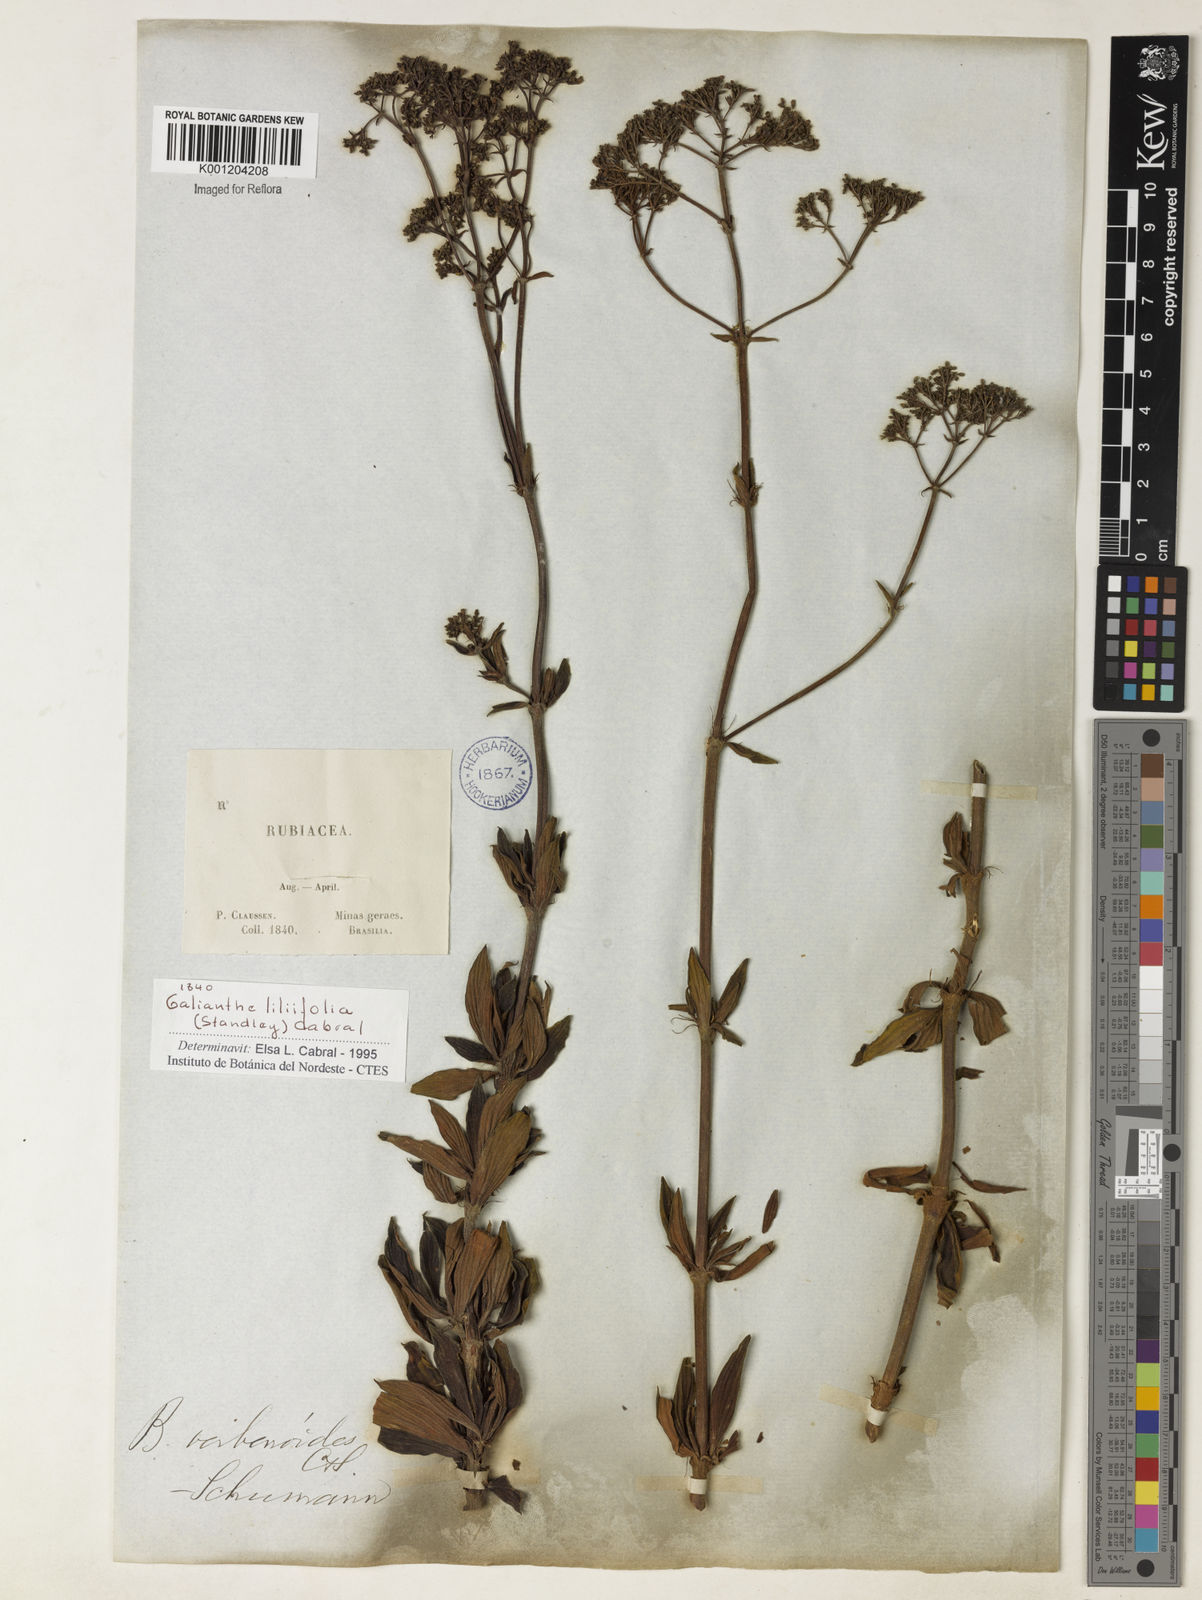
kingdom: Plantae
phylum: Tracheophyta
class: Magnoliopsida
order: Gentianales
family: Rubiaceae
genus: Galianthe
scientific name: Galianthe liliifolia
